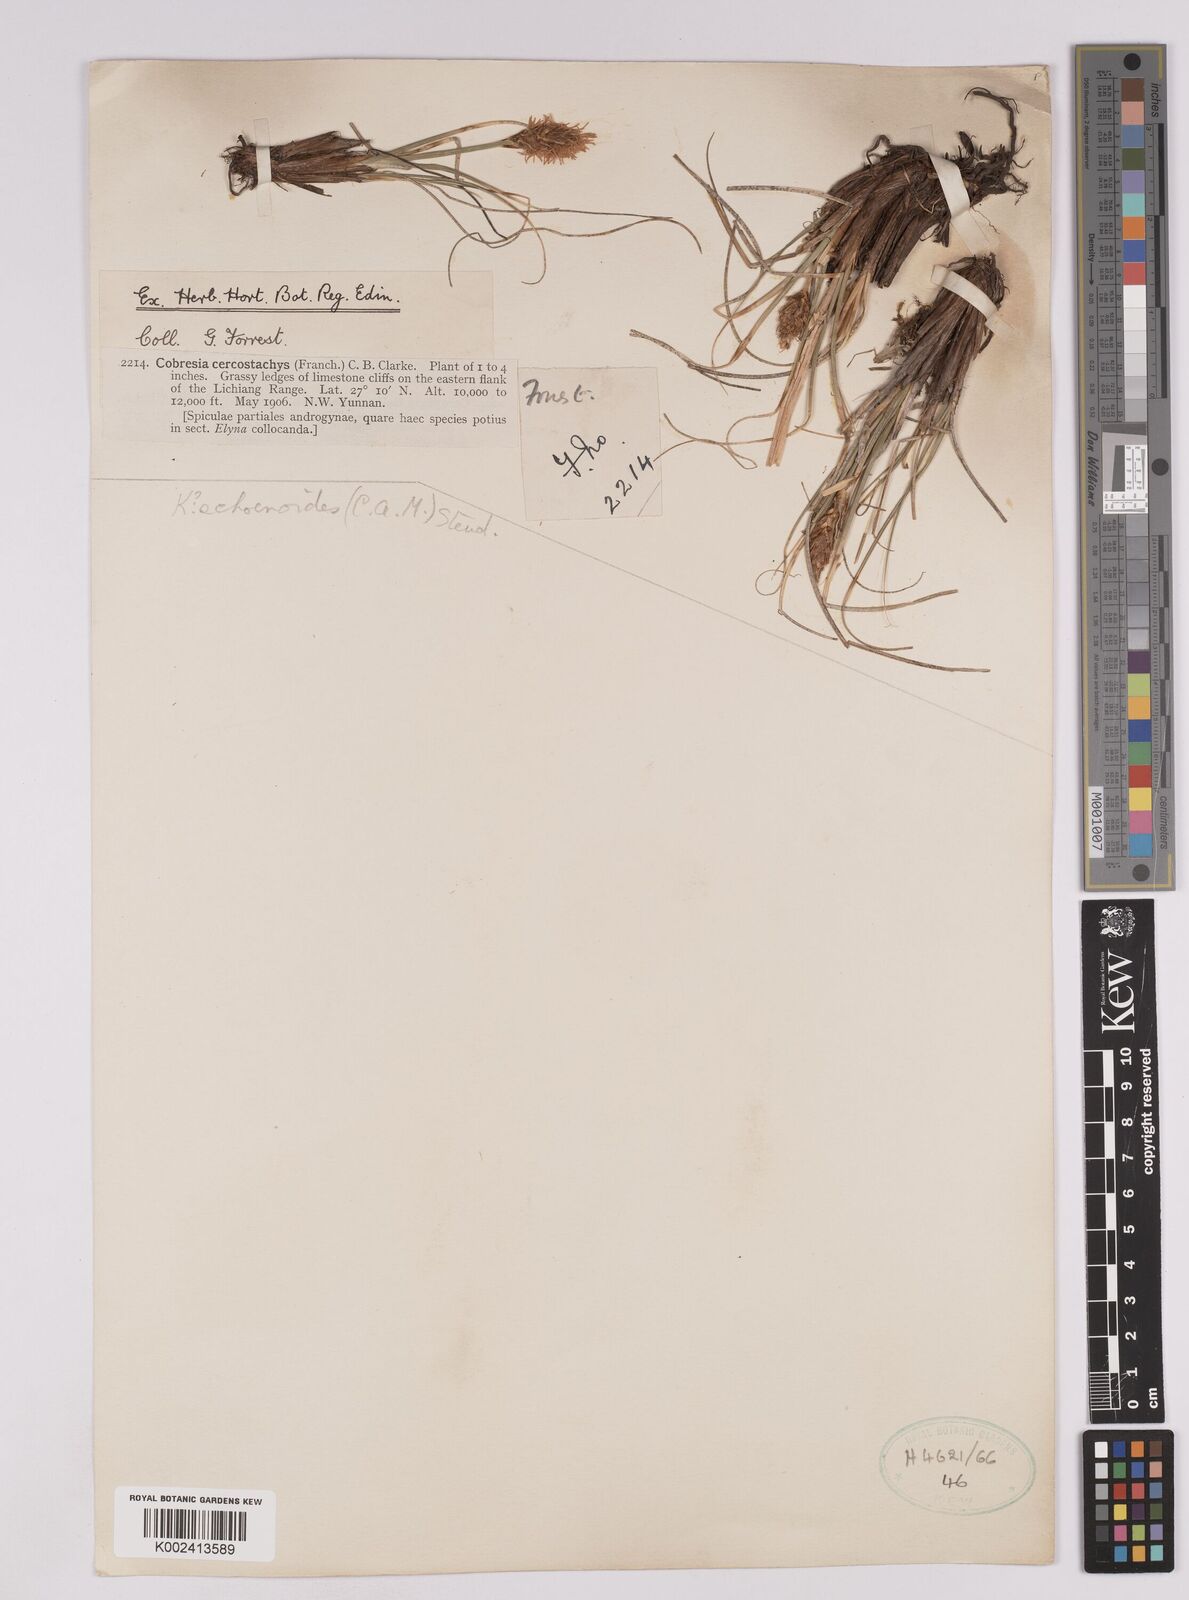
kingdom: Plantae
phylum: Tracheophyta
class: Liliopsida
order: Poales
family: Cyperaceae
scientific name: Cyperaceae
